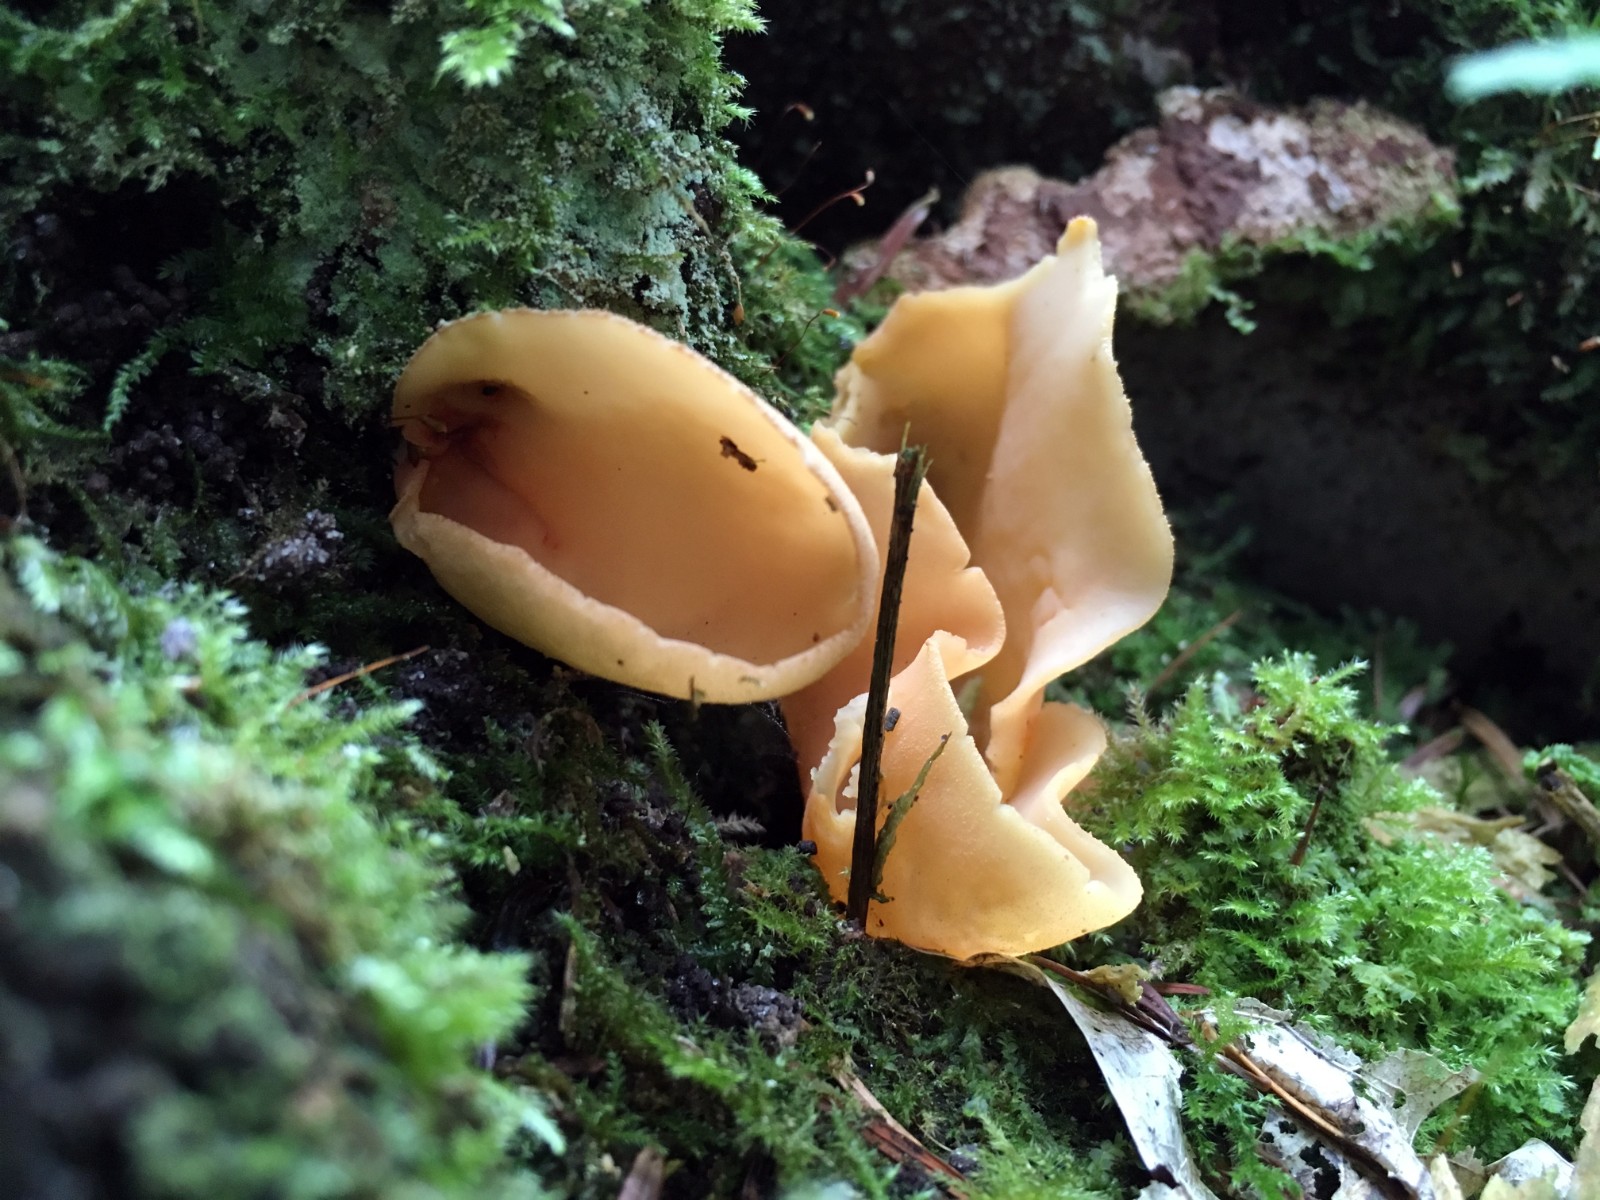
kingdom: Fungi
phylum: Ascomycota
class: Pezizomycetes
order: Pezizales
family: Otideaceae
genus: Otidea
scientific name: Otidea
